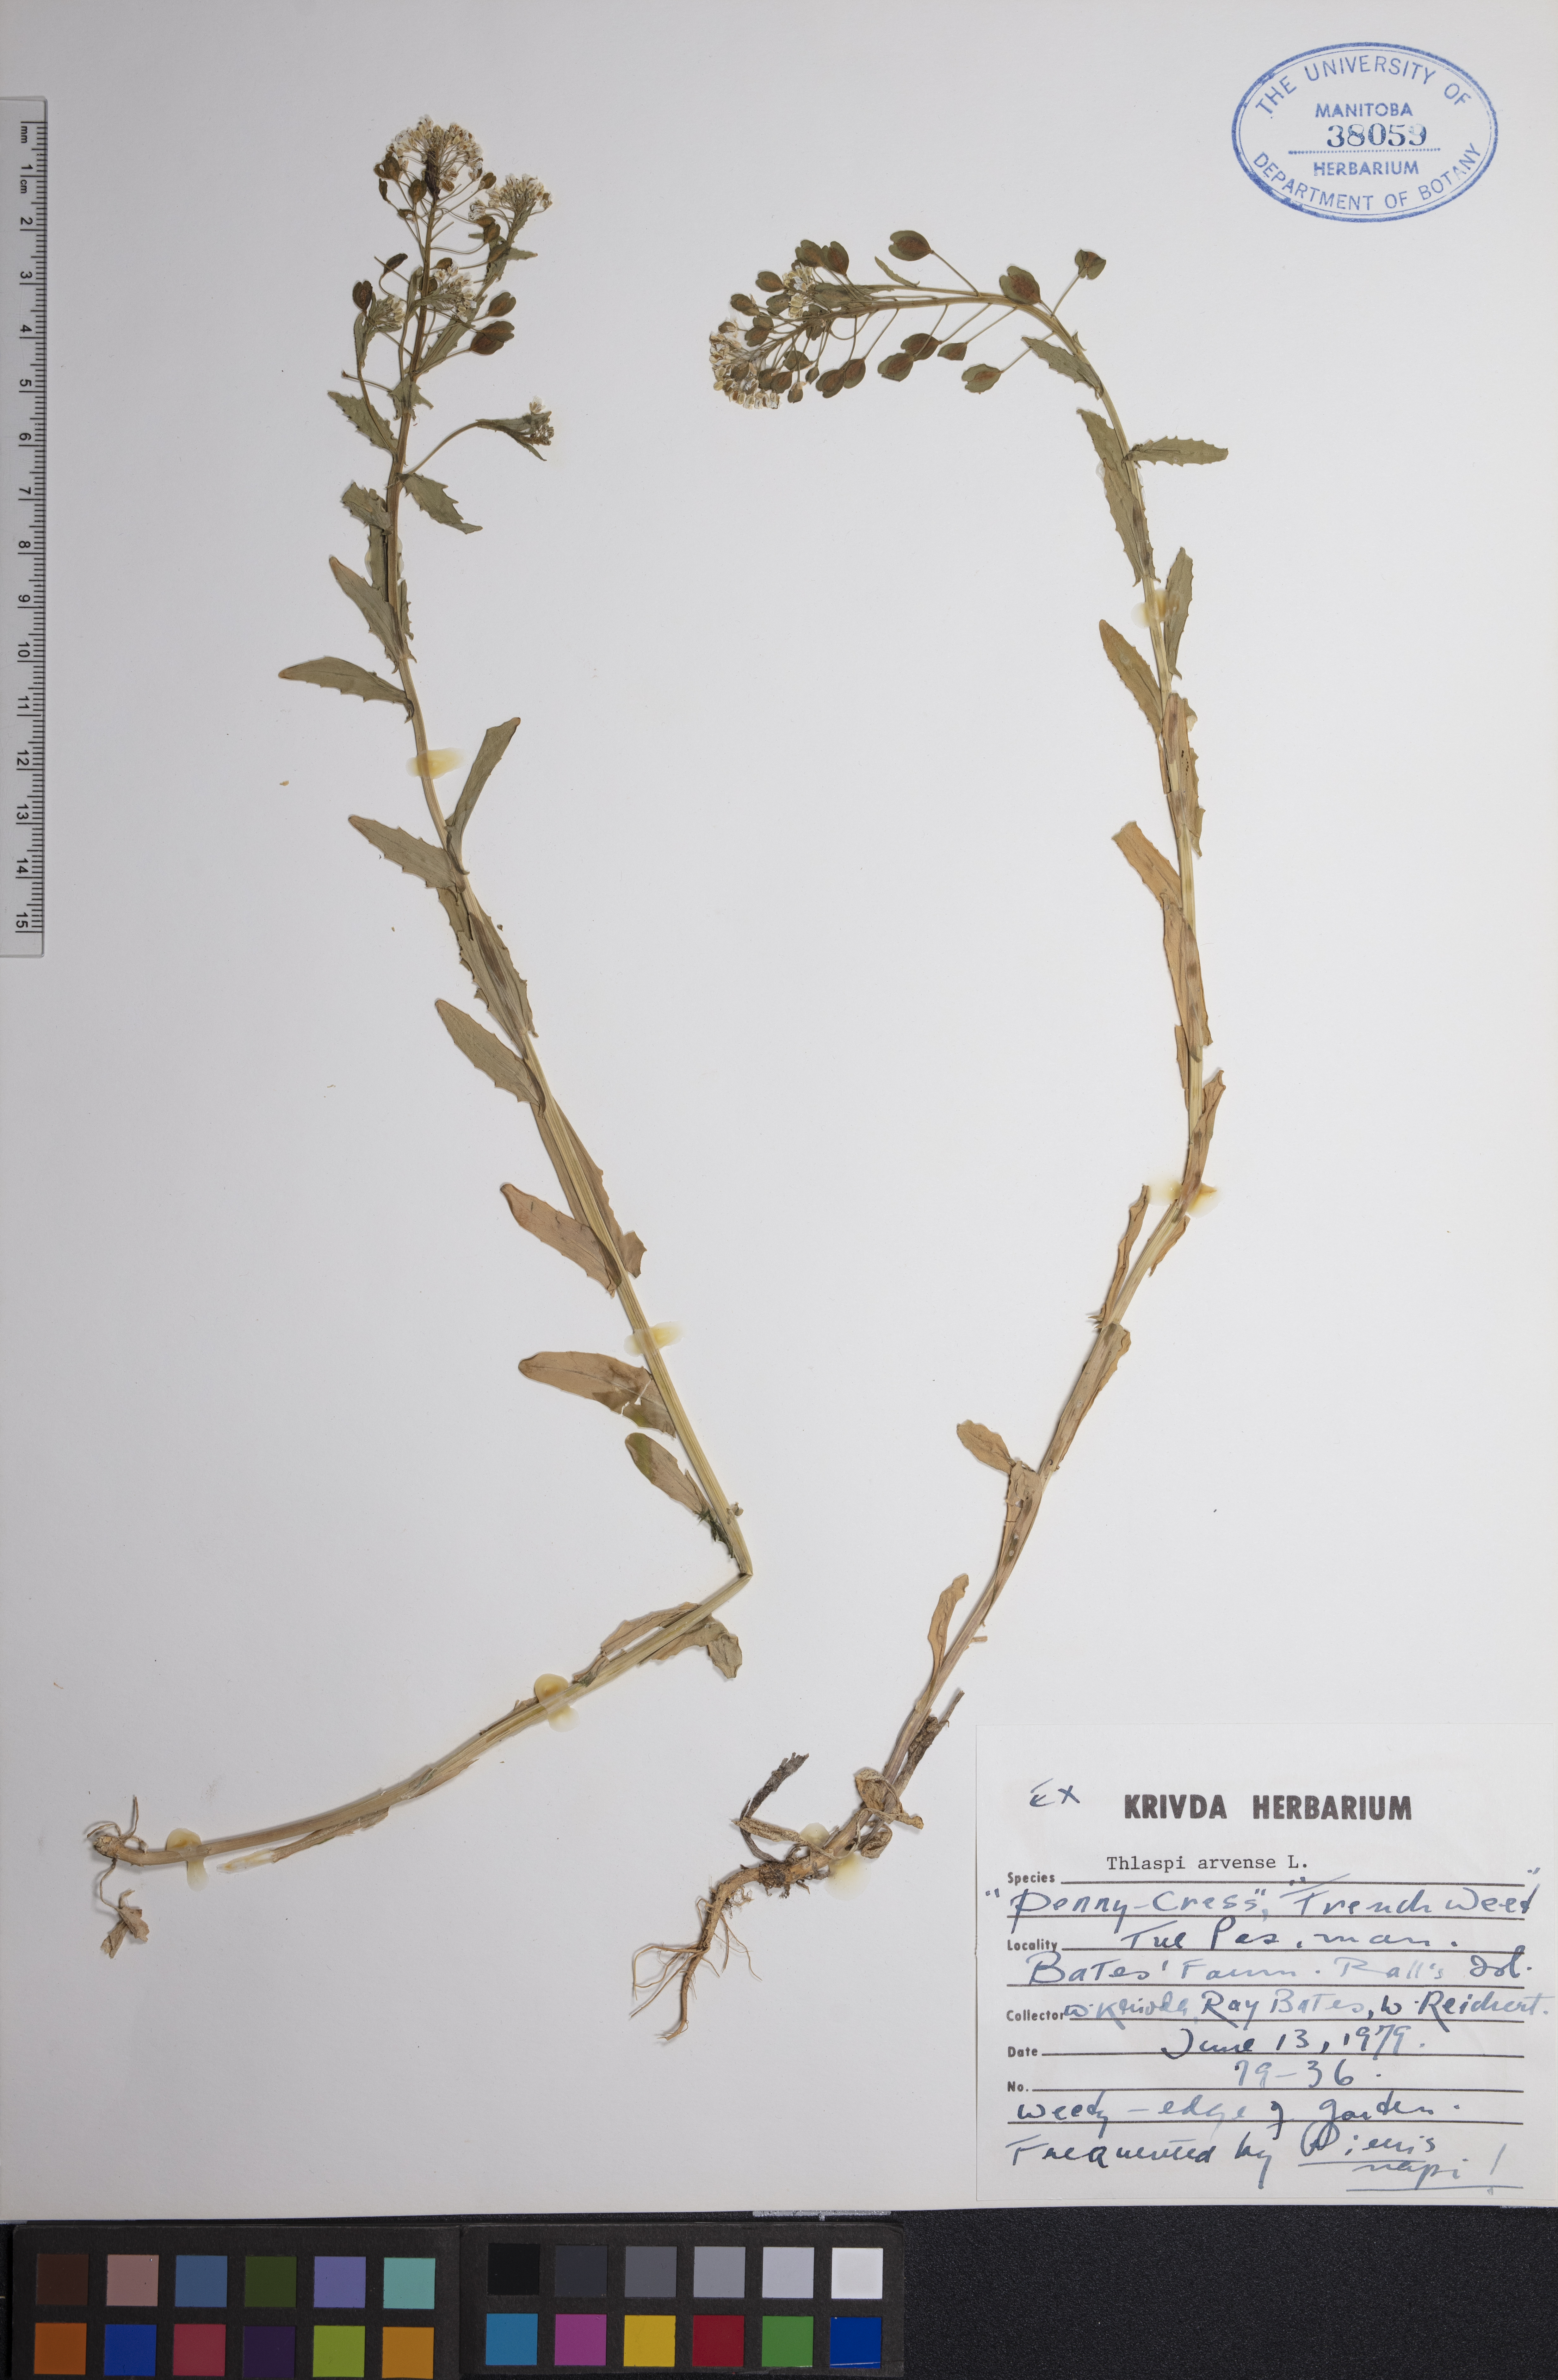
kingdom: Plantae
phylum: Tracheophyta
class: Magnoliopsida
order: Brassicales
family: Brassicaceae
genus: Thlaspi
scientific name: Thlaspi arvense
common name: Field pennycress
